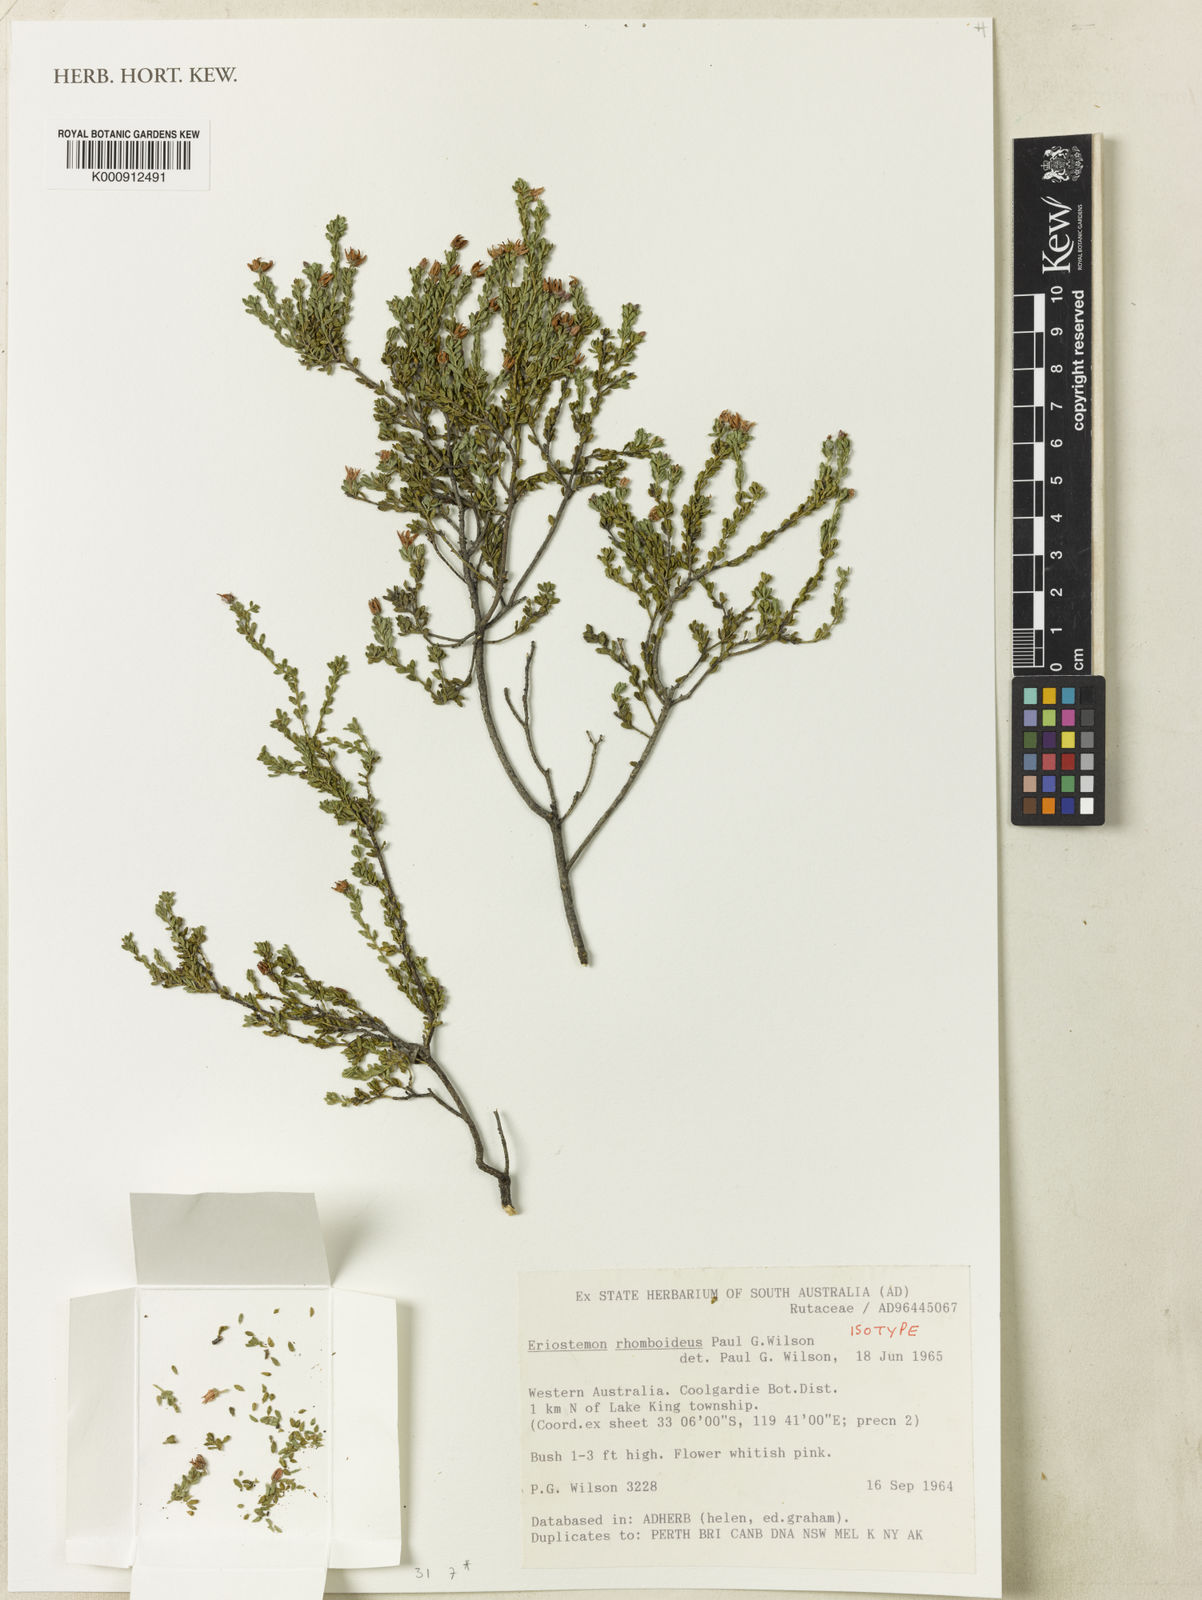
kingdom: Plantae
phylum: Tracheophyta
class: Magnoliopsida
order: Sapindales
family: Rutaceae
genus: Philotheca
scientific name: Philotheca rhomboidea
